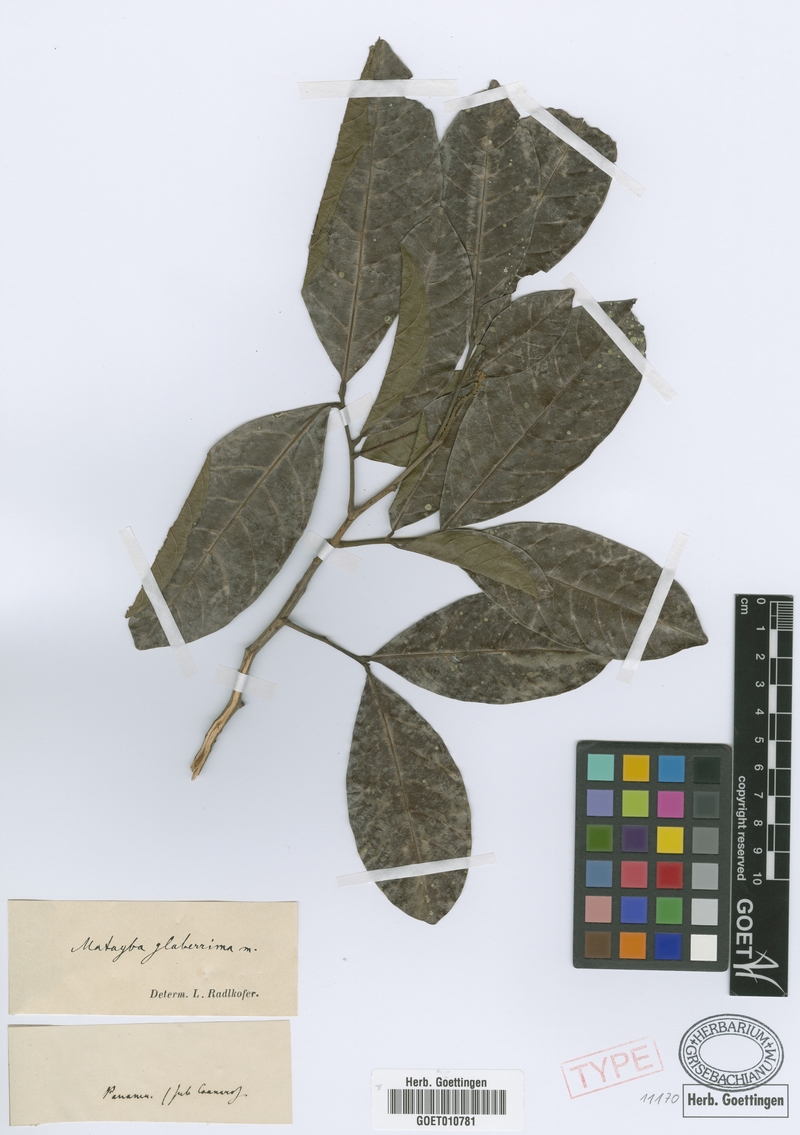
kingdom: Plantae
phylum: Tracheophyta
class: Magnoliopsida
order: Sapindales
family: Sapindaceae
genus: Matayba
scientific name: Matayba glaberrima
